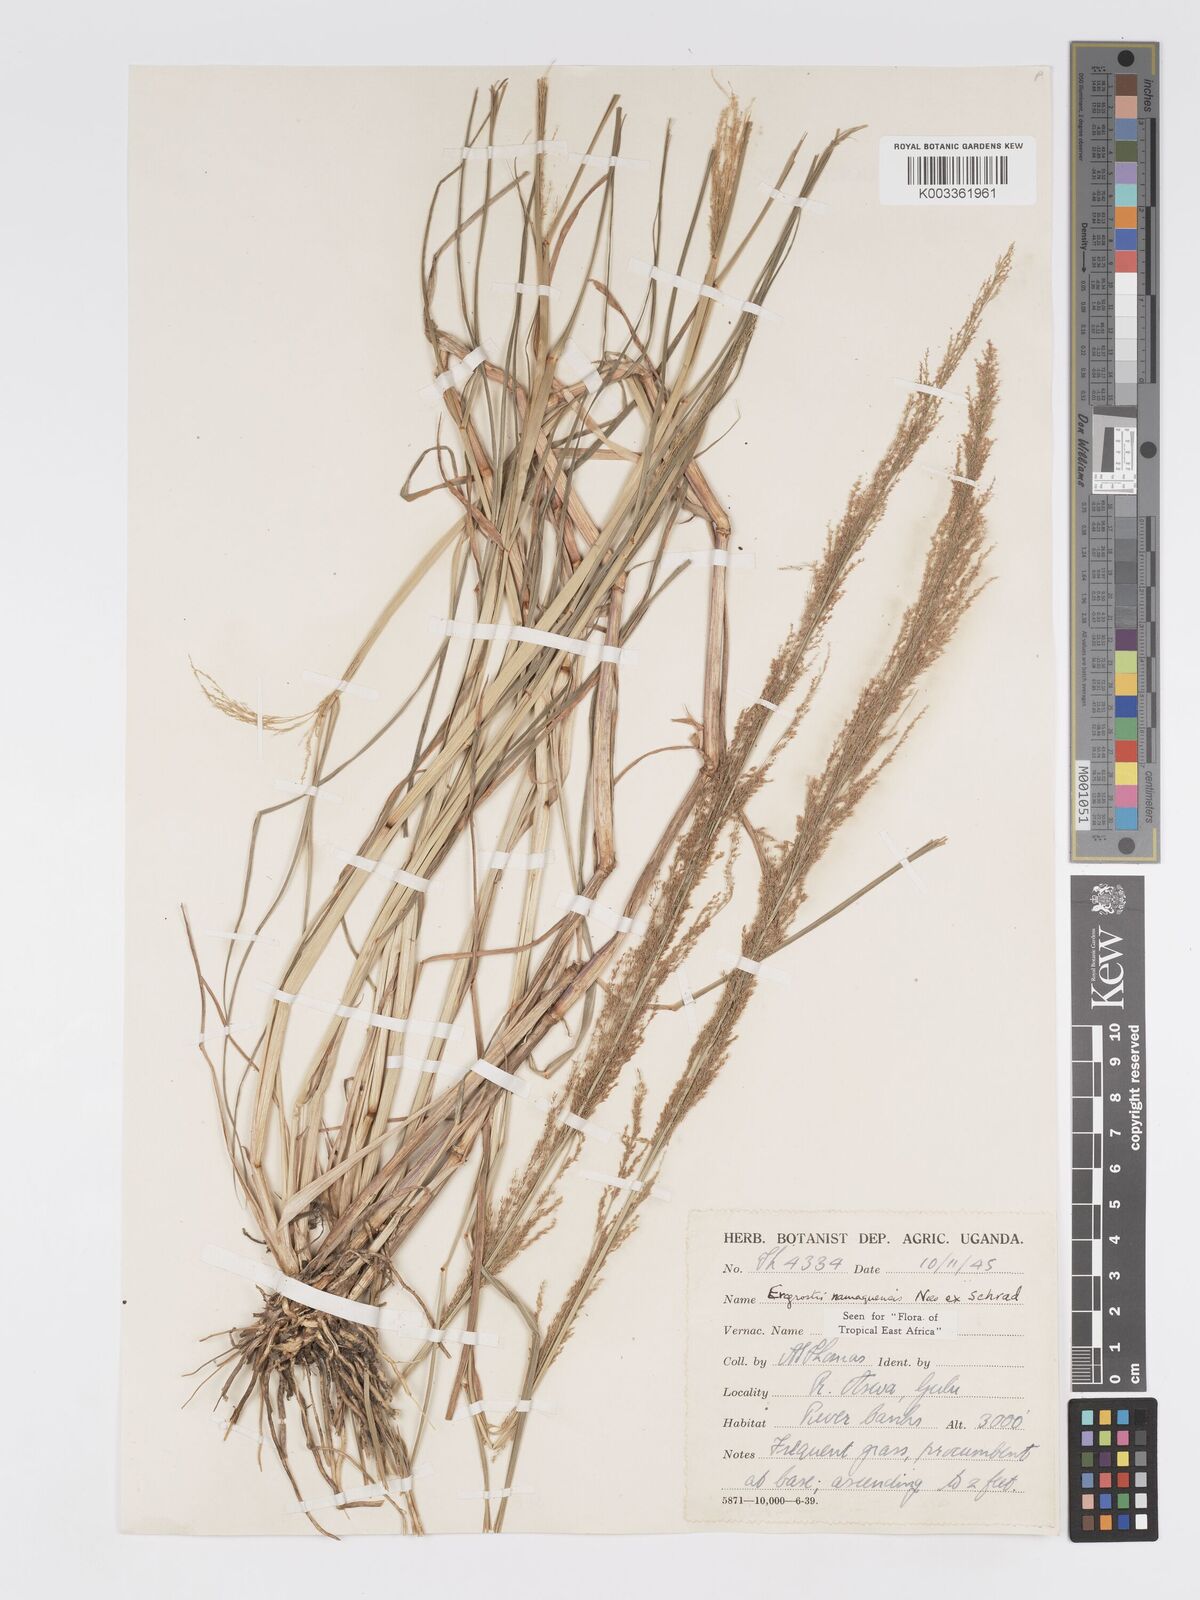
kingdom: Plantae
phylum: Tracheophyta
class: Liliopsida
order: Poales
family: Poaceae
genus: Eragrostis
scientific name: Eragrostis japonica
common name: Pond lovegrass
